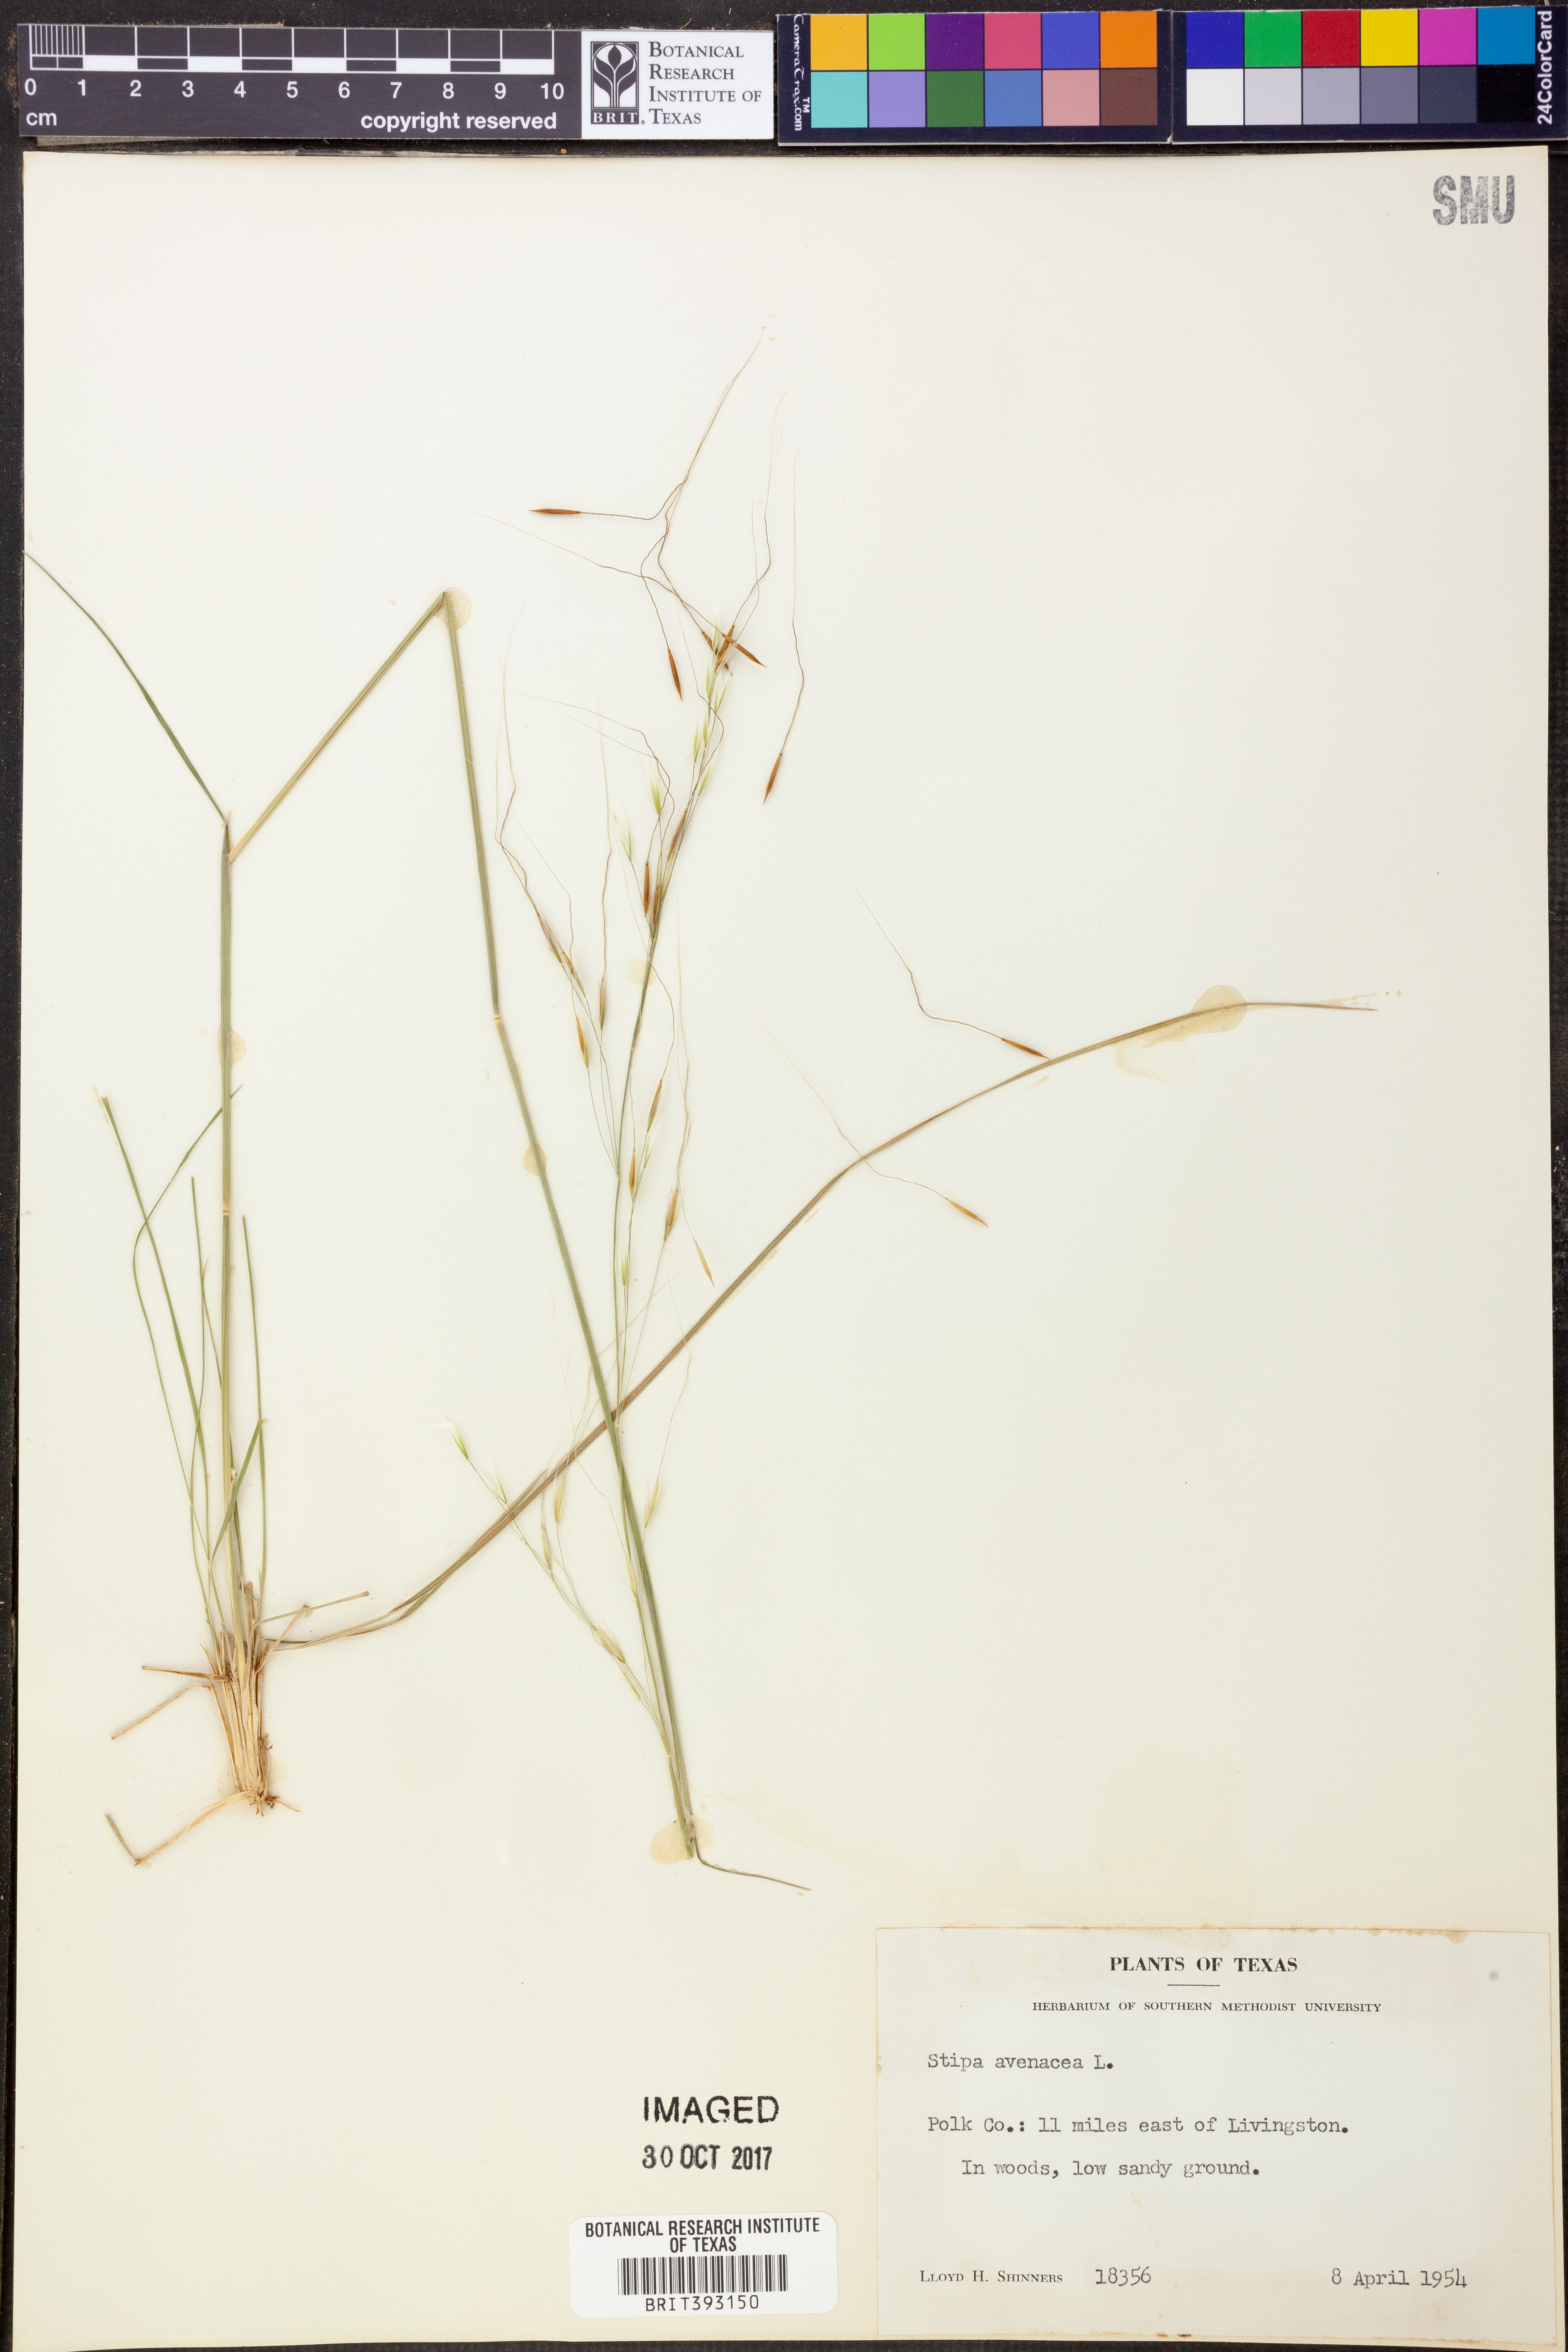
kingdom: Plantae
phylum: Tracheophyta
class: Liliopsida
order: Poales
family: Poaceae
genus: Piptochaetium
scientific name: Piptochaetium avenaceum
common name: Black bunchgrass
